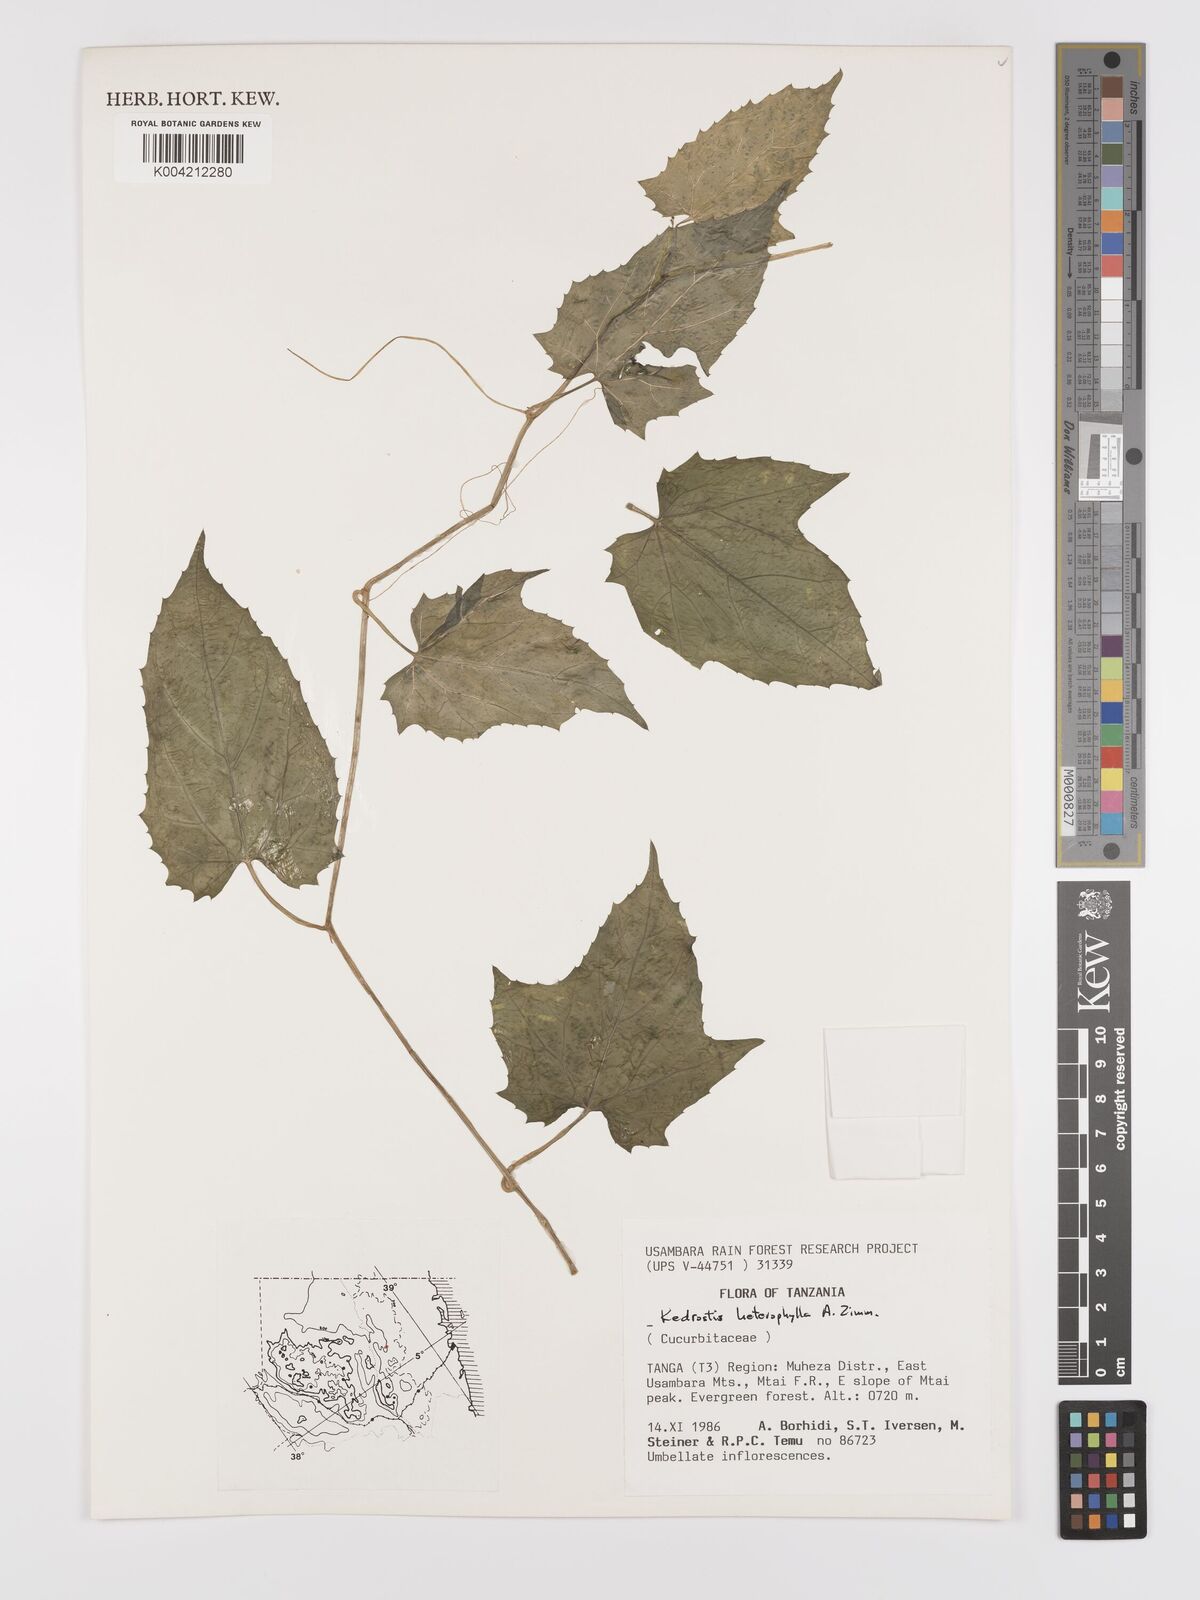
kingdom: Plantae
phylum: Tracheophyta
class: Magnoliopsida
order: Cucurbitales
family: Cucurbitaceae
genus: Kedrostis
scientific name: Kedrostis heterophylla
